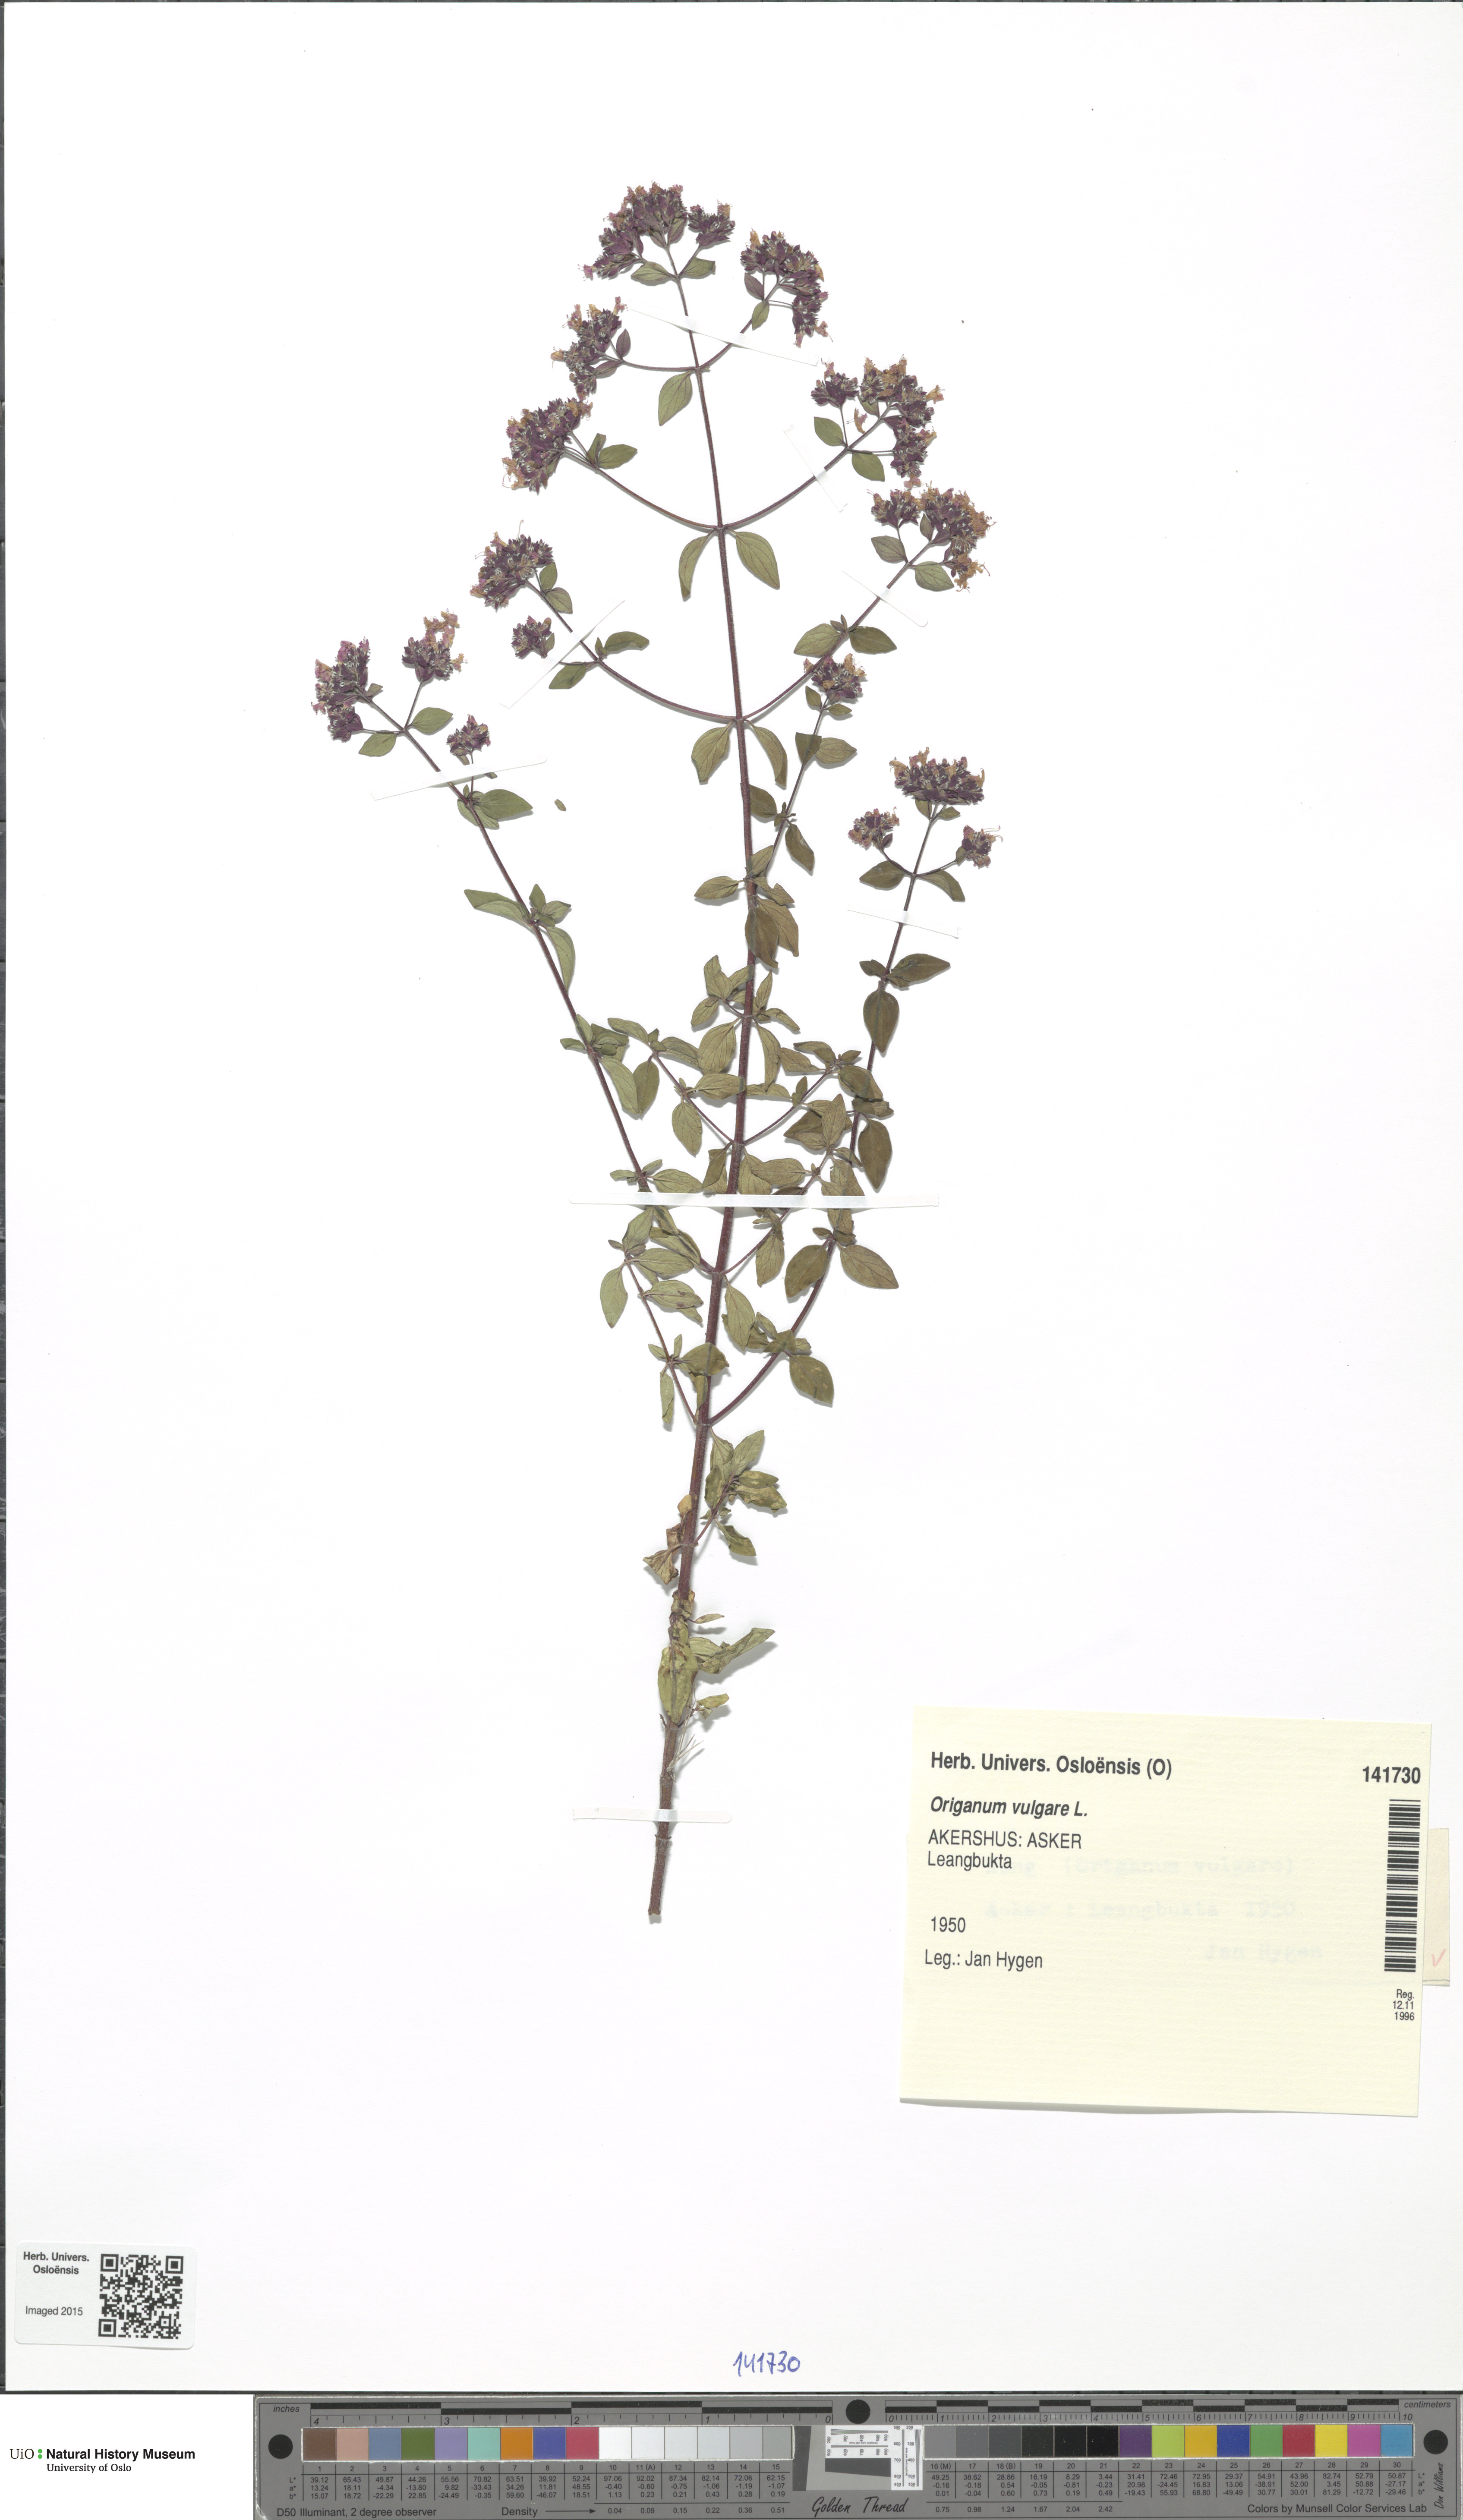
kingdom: Plantae
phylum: Tracheophyta
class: Magnoliopsida
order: Lamiales
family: Lamiaceae
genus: Origanum
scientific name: Origanum vulgare
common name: Wild marjoram
